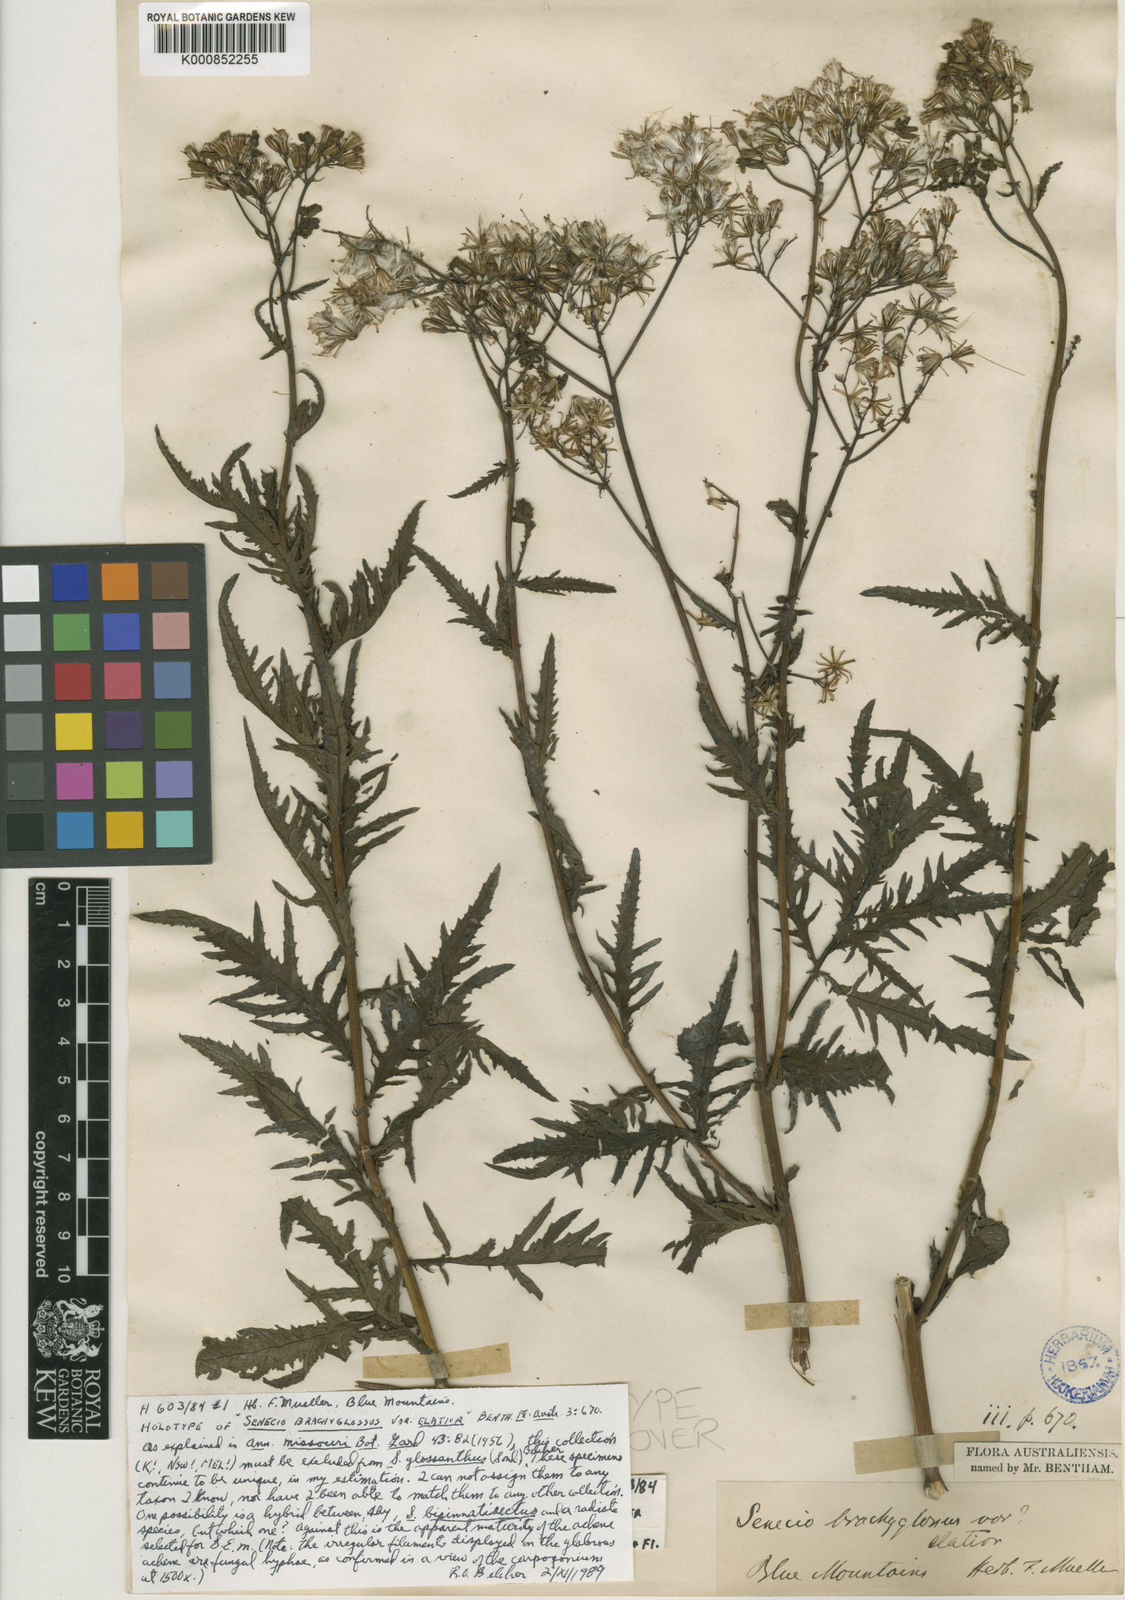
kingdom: Plantae
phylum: Tracheophyta
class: Magnoliopsida
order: Asterales
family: Asteraceae
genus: Senecio
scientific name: Senecio halophilus
